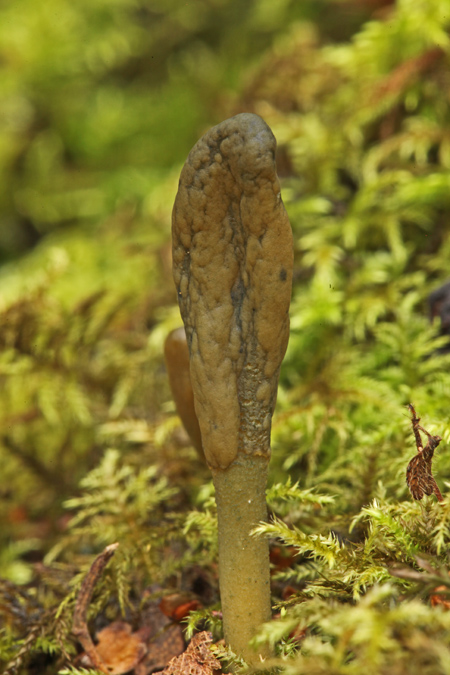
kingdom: Fungi
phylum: Ascomycota
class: Leotiomycetes
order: Leotiales
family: Leotiaceae
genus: Microglossum
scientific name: Microglossum viride
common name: grøn farvetunge
